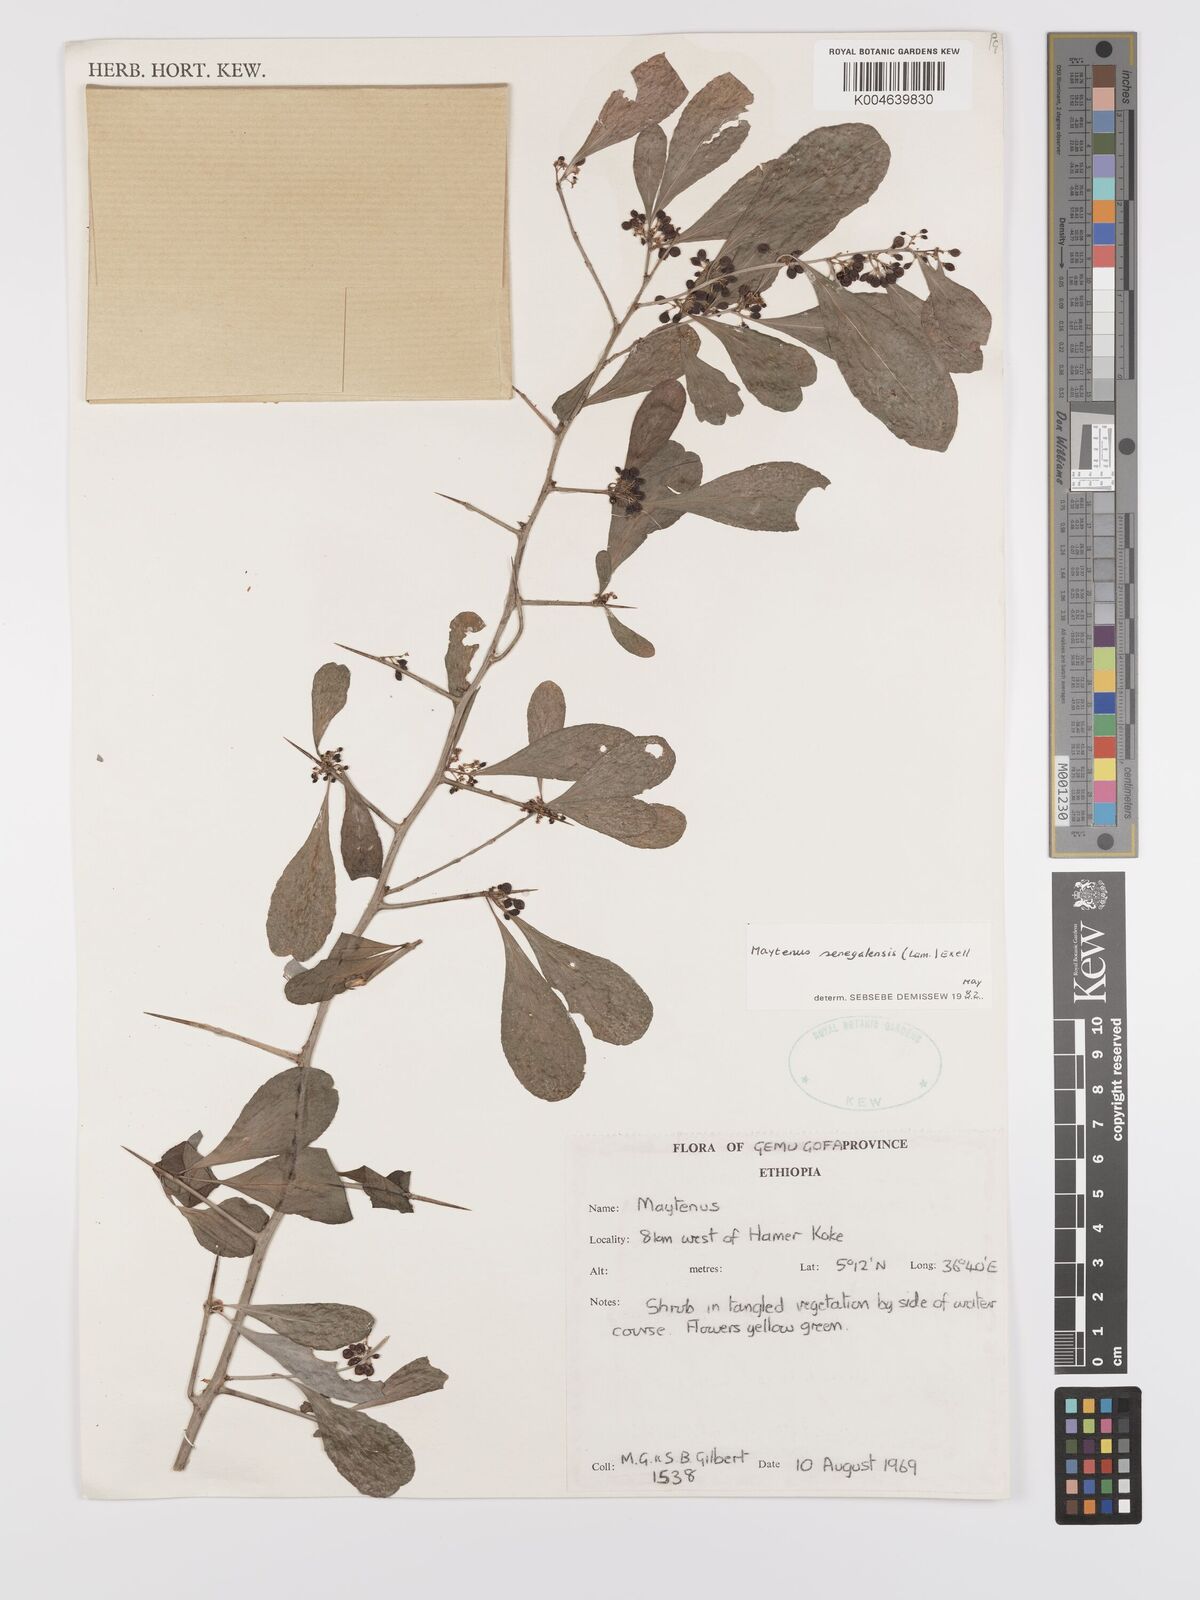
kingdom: Plantae
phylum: Tracheophyta
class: Magnoliopsida
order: Celastrales
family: Celastraceae
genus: Gymnosporia
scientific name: Gymnosporia senegalensis
